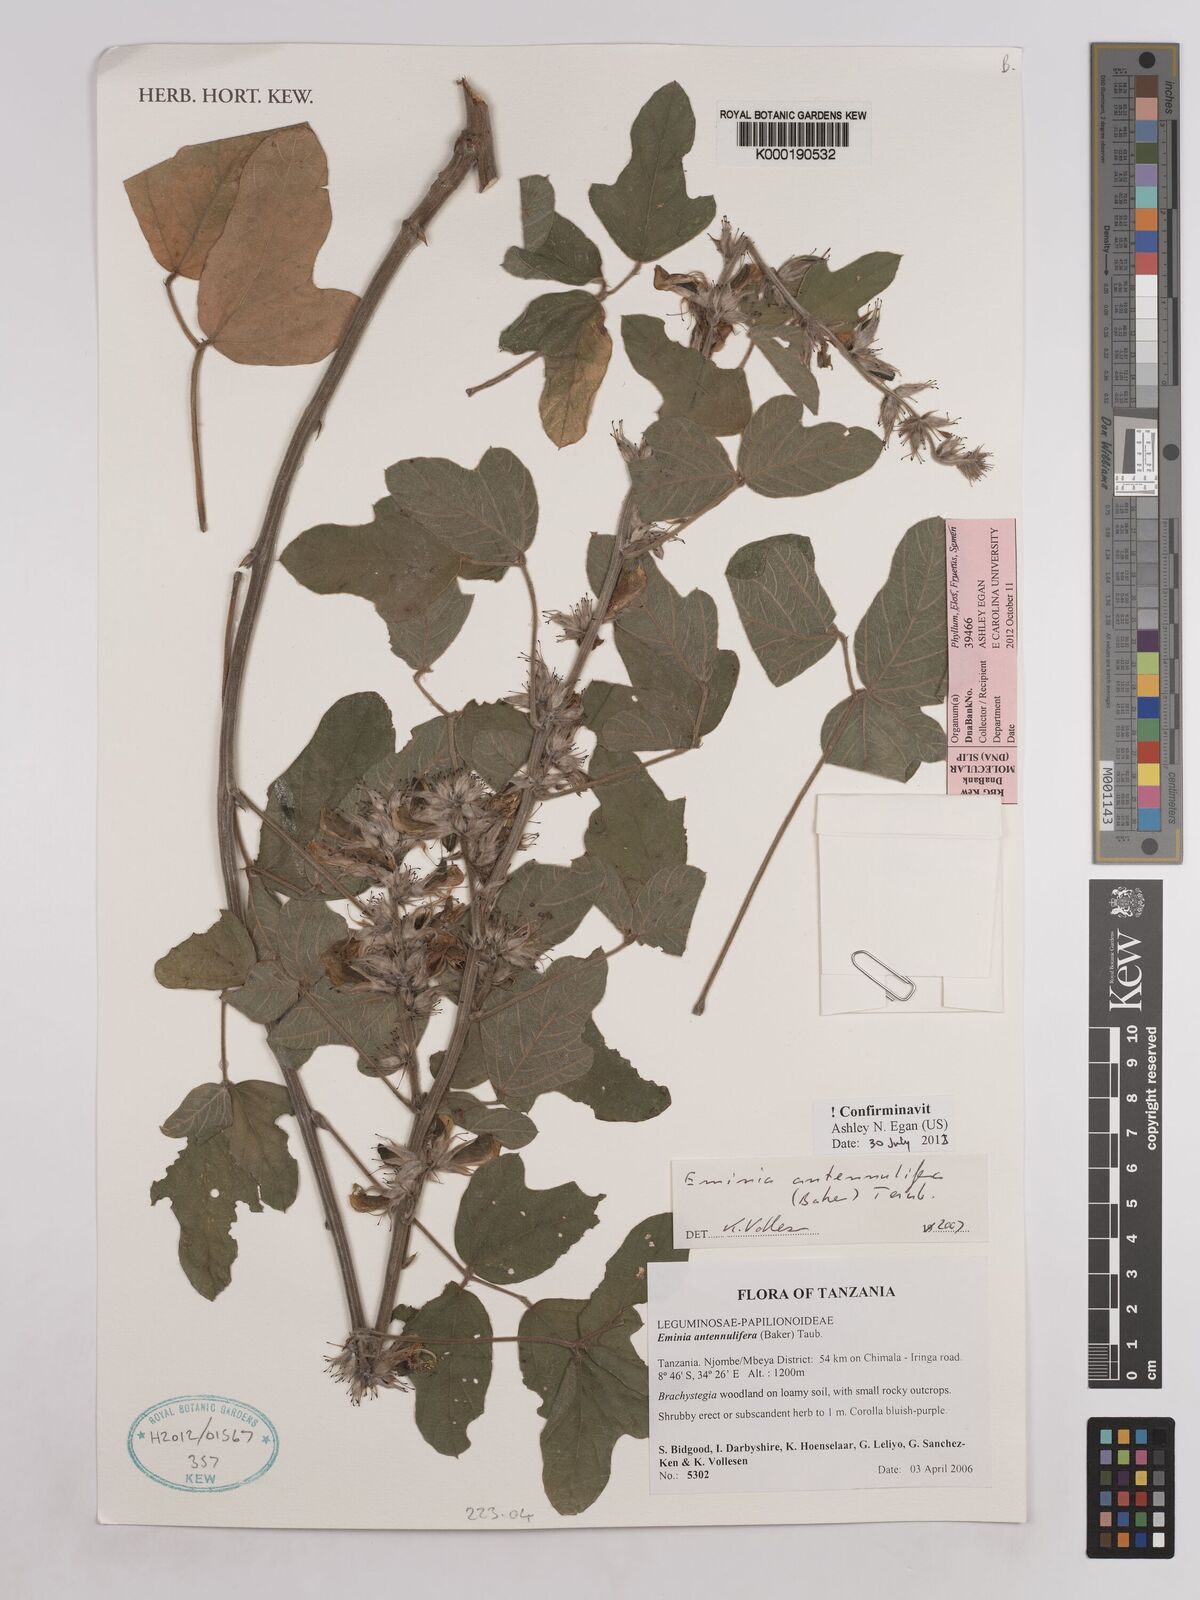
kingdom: Plantae
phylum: Tracheophyta
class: Magnoliopsida
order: Fabales
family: Fabaceae
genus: Eminia
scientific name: Eminia antennulifera
